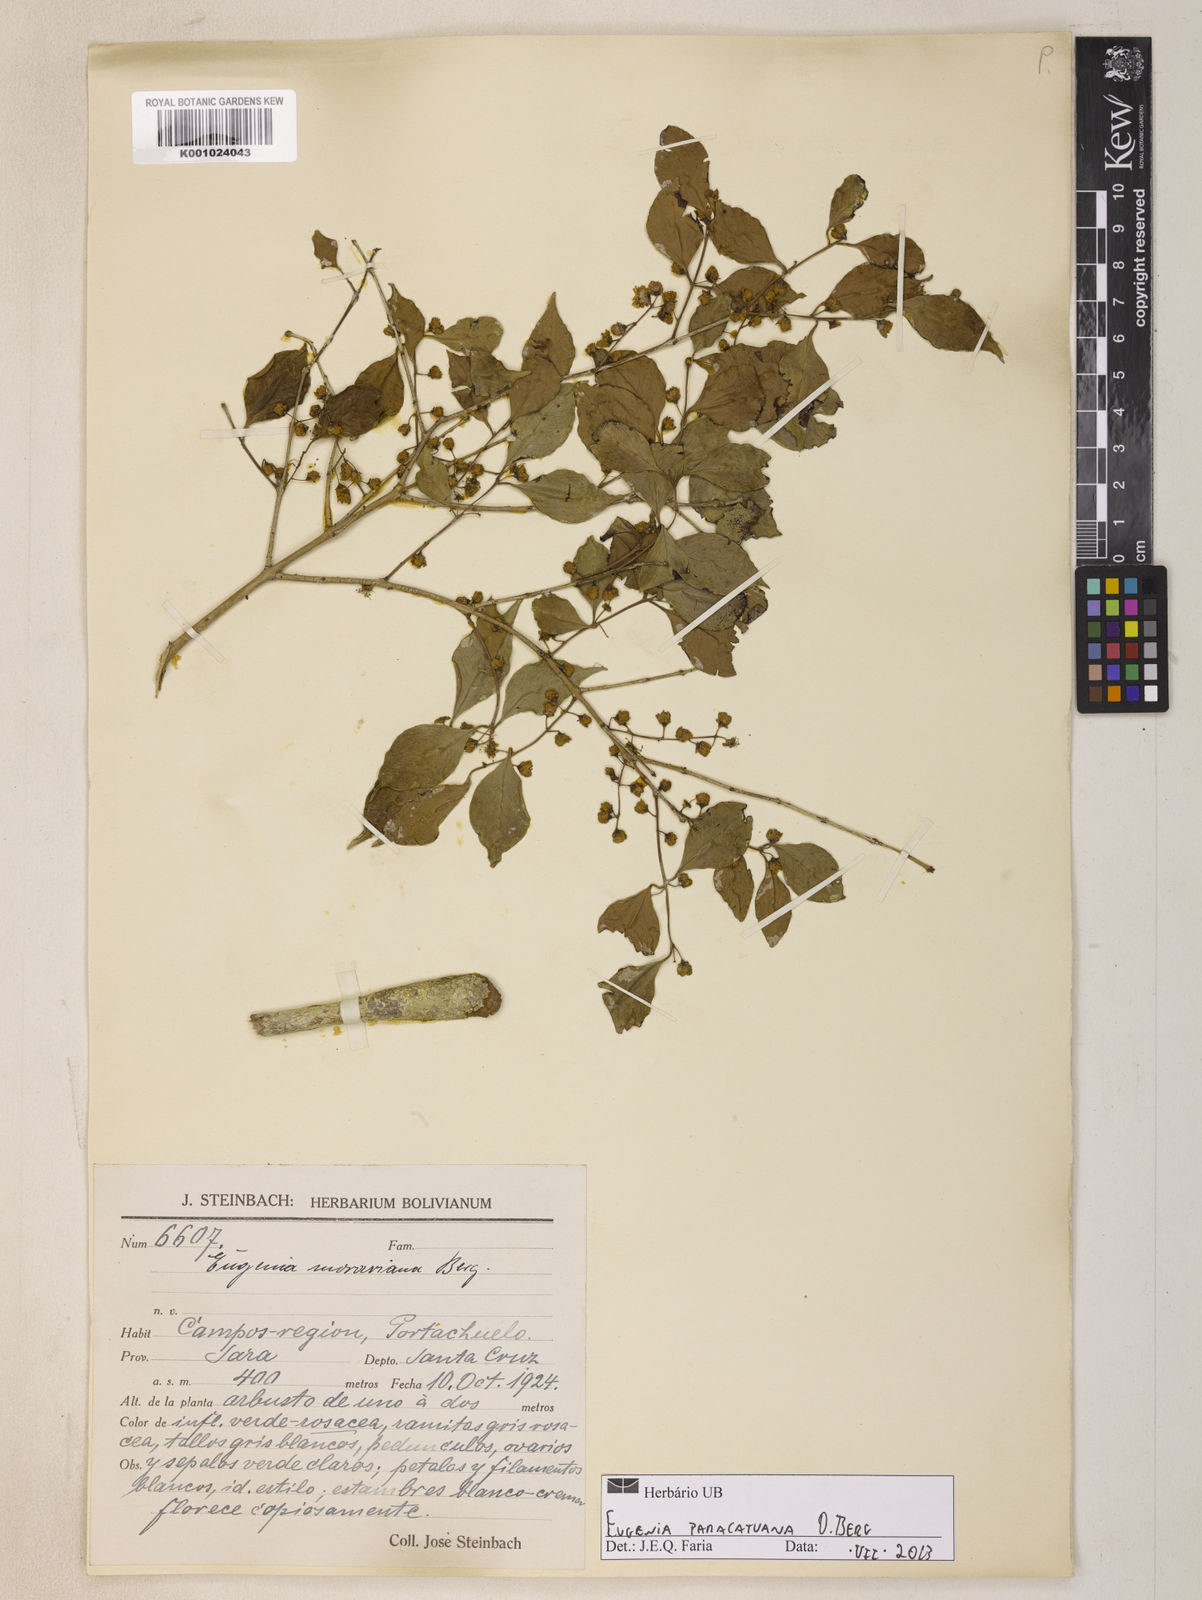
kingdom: Plantae
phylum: Tracheophyta
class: Magnoliopsida
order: Myrtales
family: Myrtaceae
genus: Eugenia
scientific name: Eugenia moraviana
